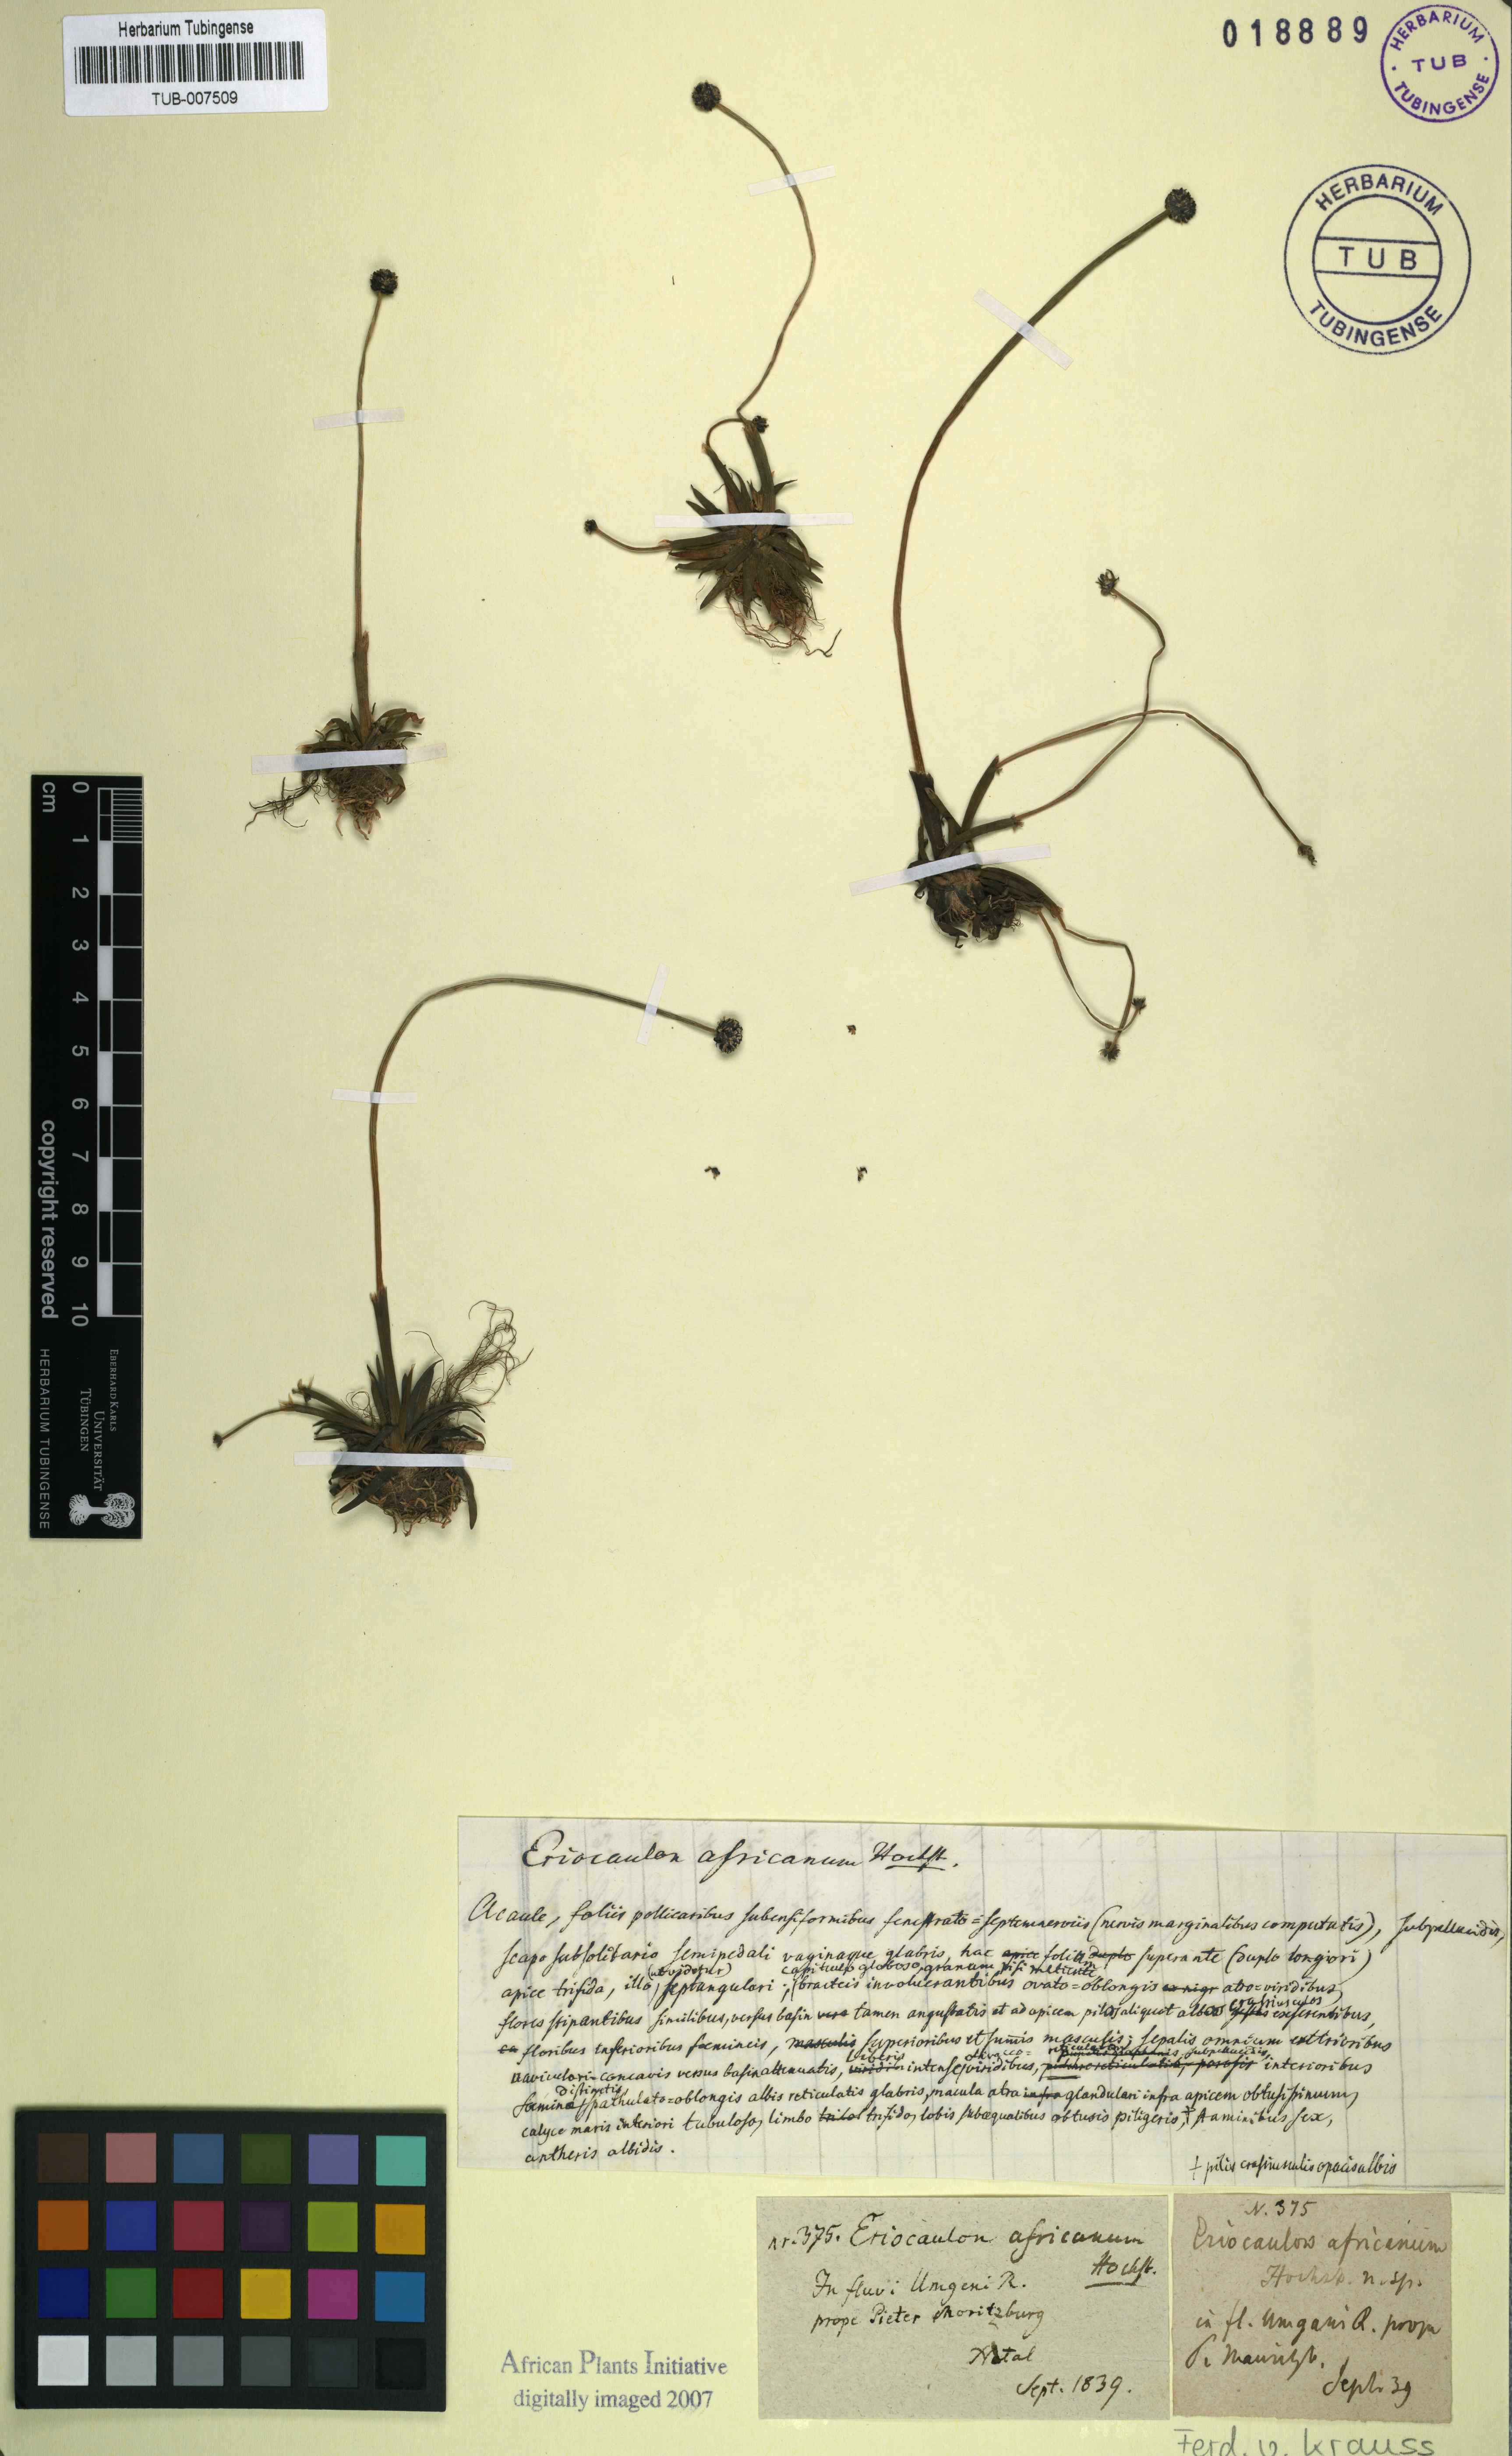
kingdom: Plantae
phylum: Tracheophyta
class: Liliopsida
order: Poales
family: Eriocaulaceae
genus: Eriocaulon
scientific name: Eriocaulon africanum
